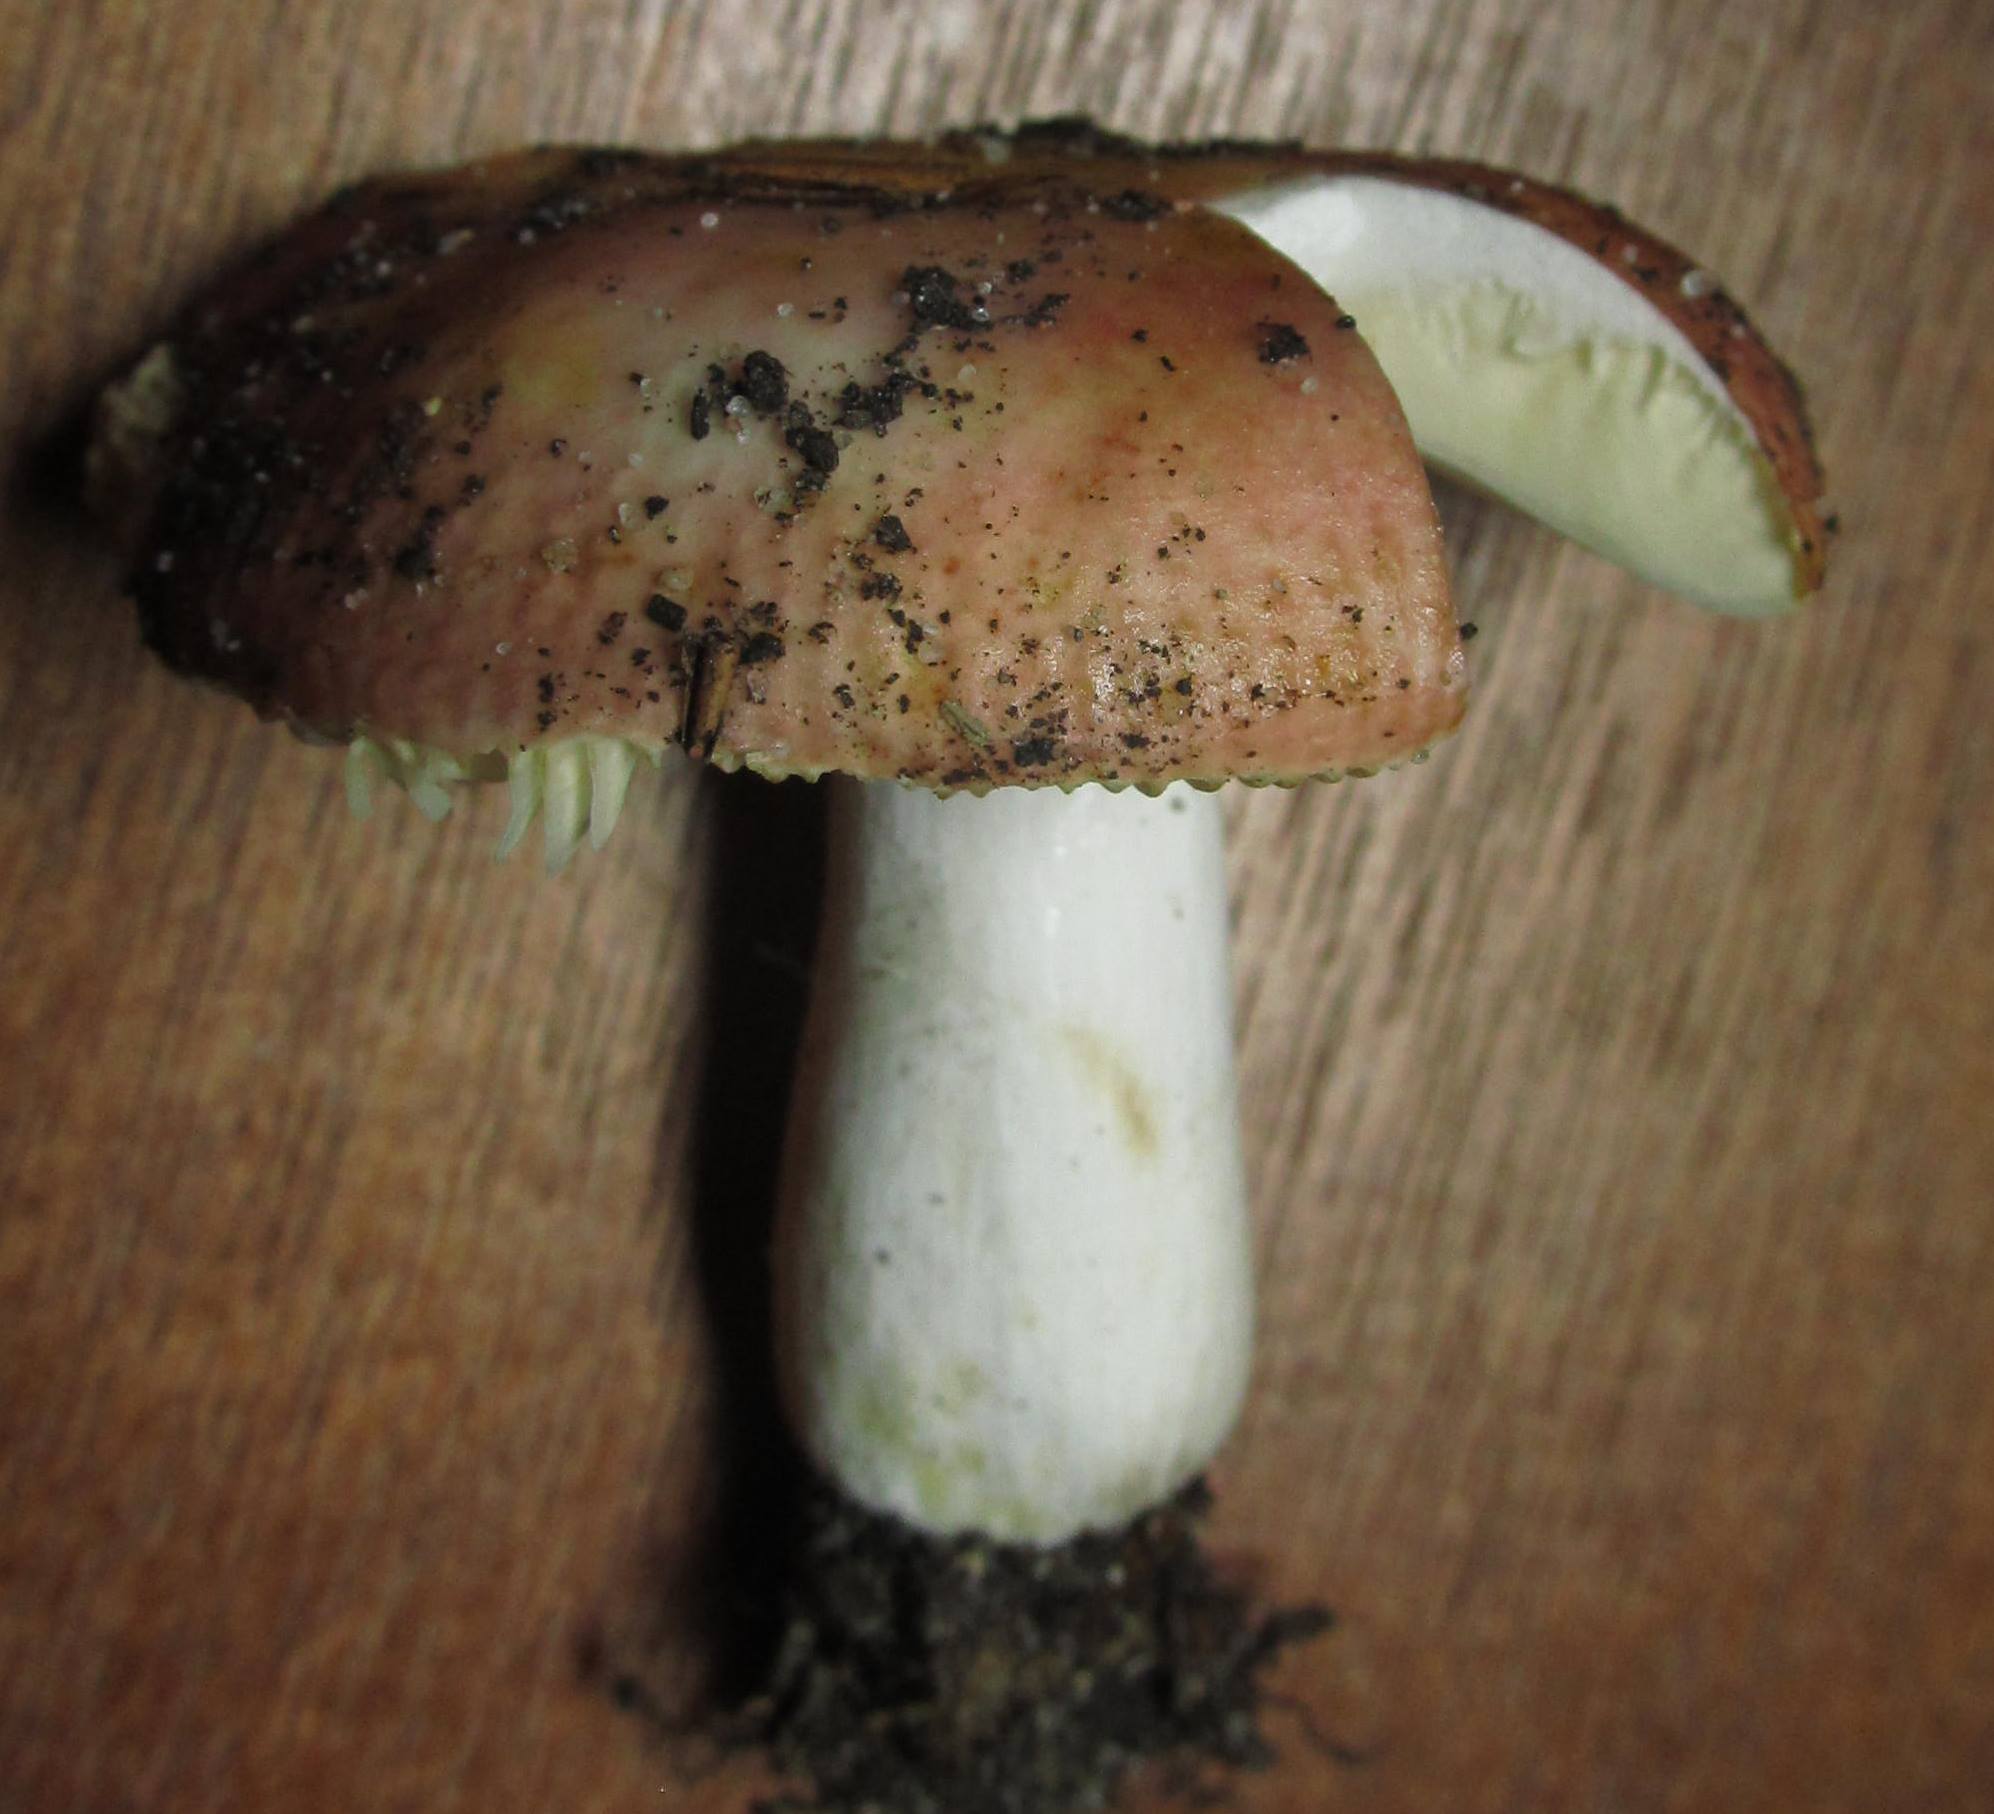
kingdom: Fungi
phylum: Basidiomycota
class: Agaricomycetes
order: Russulales
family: Russulaceae
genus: Russula
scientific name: Russula maculata
